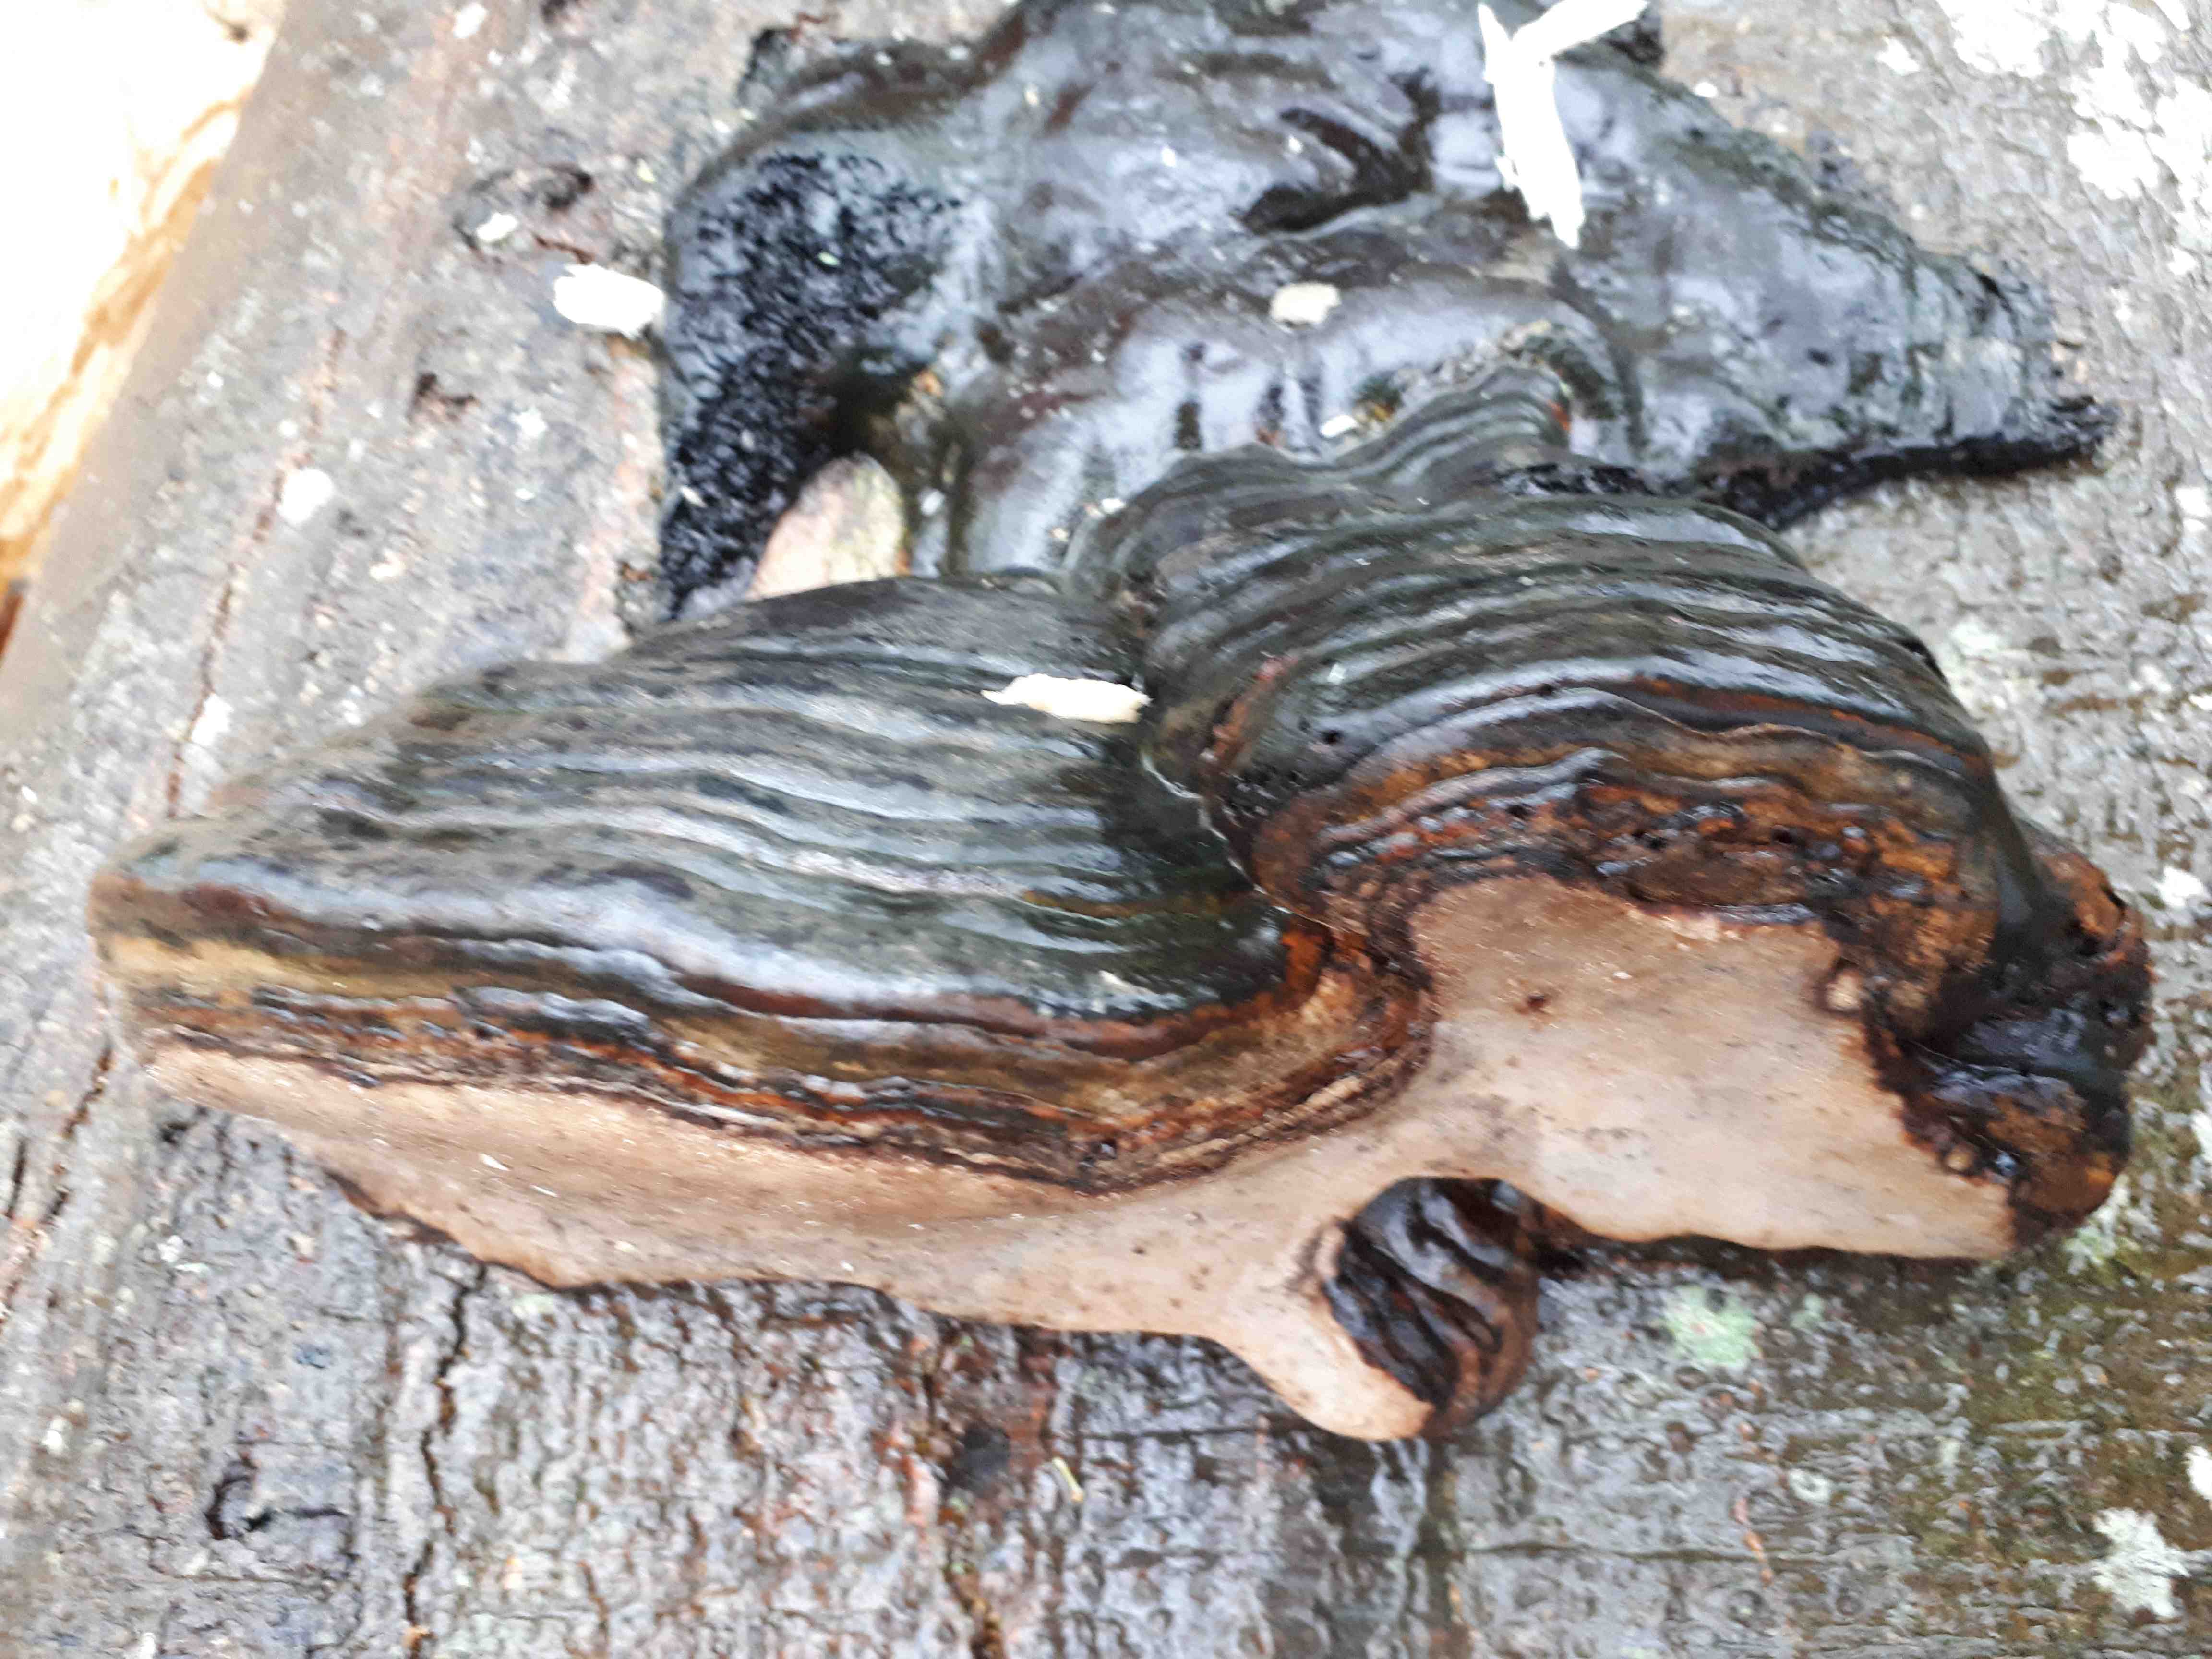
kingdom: Fungi
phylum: Basidiomycota
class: Agaricomycetes
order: Polyporales
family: Polyporaceae
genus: Fomes
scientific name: Fomes fomentarius
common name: tøndersvamp
